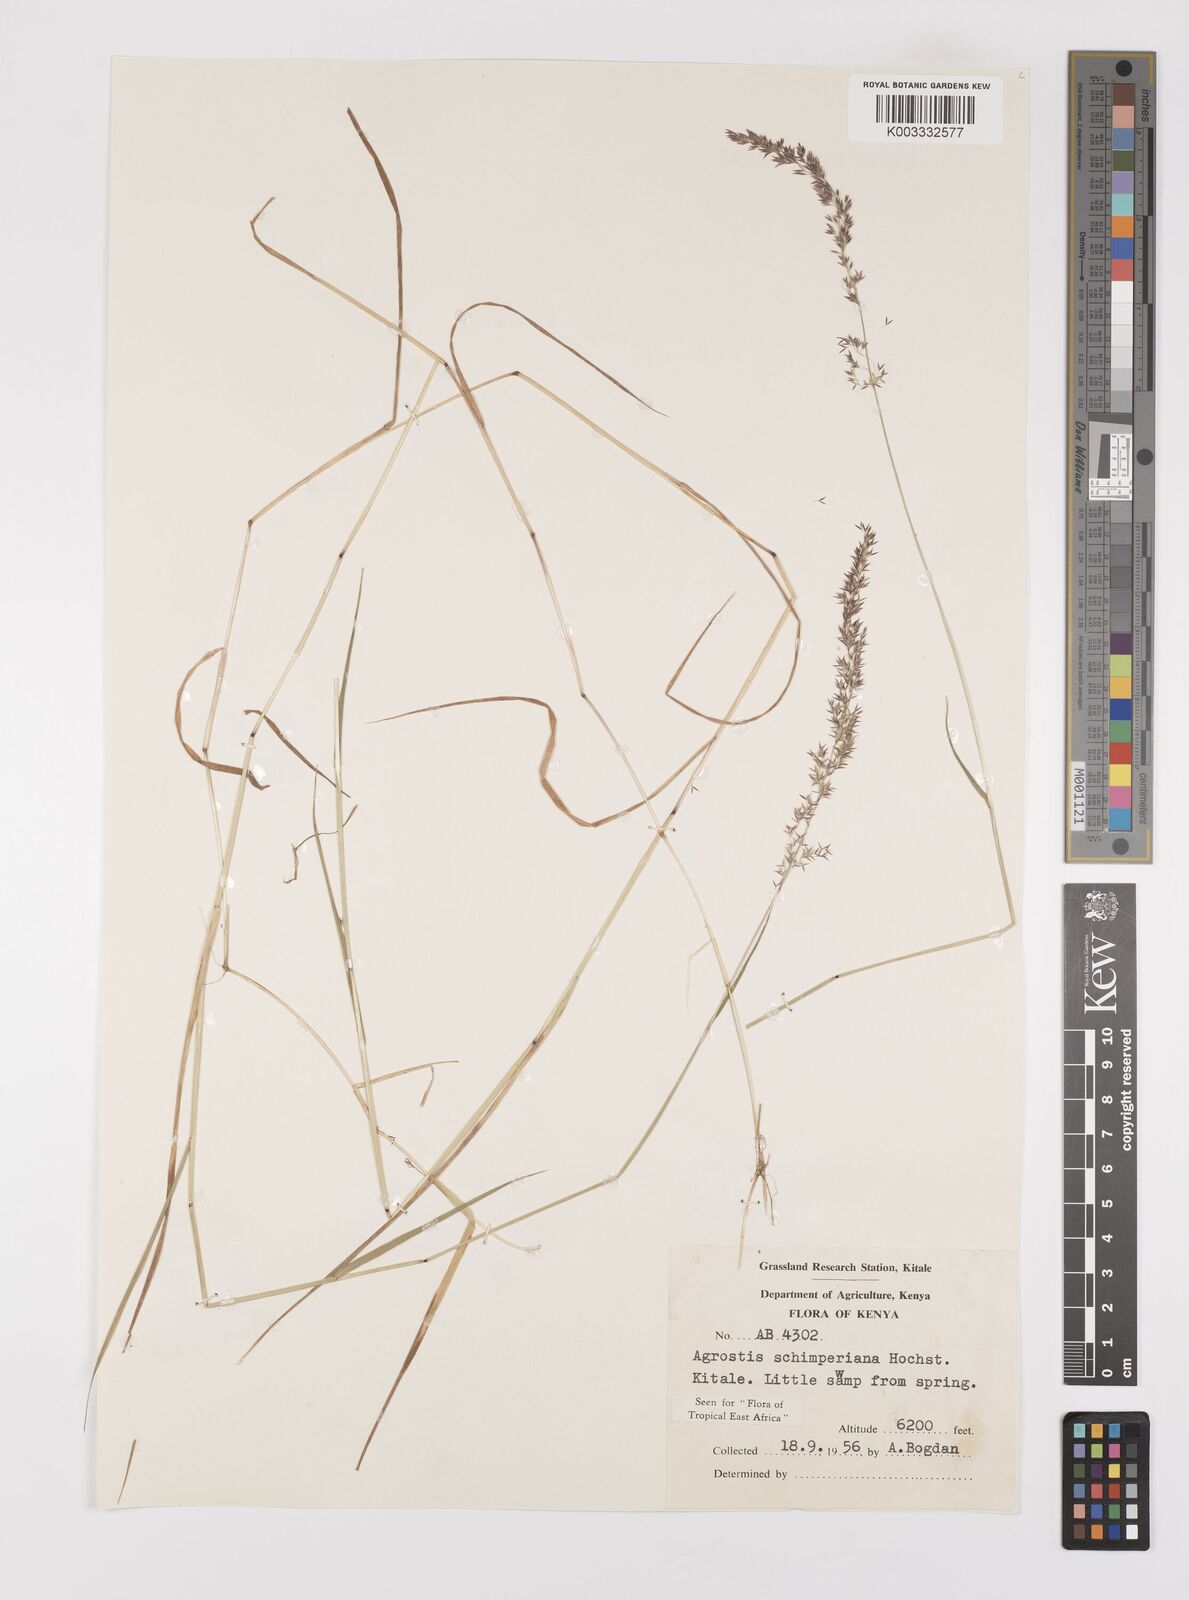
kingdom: Plantae
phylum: Tracheophyta
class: Liliopsida
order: Poales
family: Poaceae
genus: Polypogon
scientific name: Polypogon schimperianus
